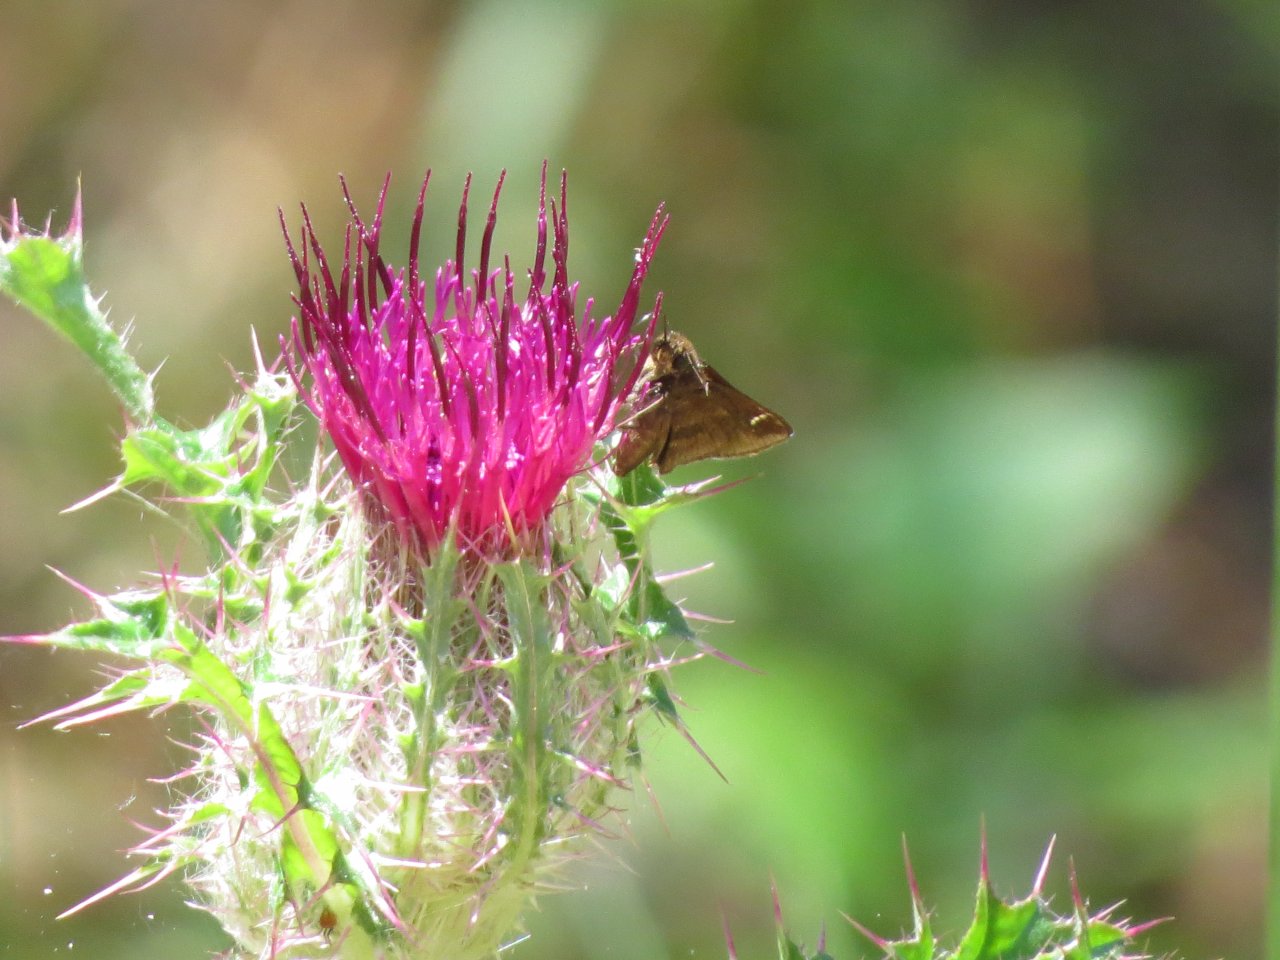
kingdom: Animalia
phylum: Arthropoda
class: Insecta
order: Lepidoptera
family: Hesperiidae
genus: Lerema
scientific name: Lerema accius
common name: Clouded Skipper
